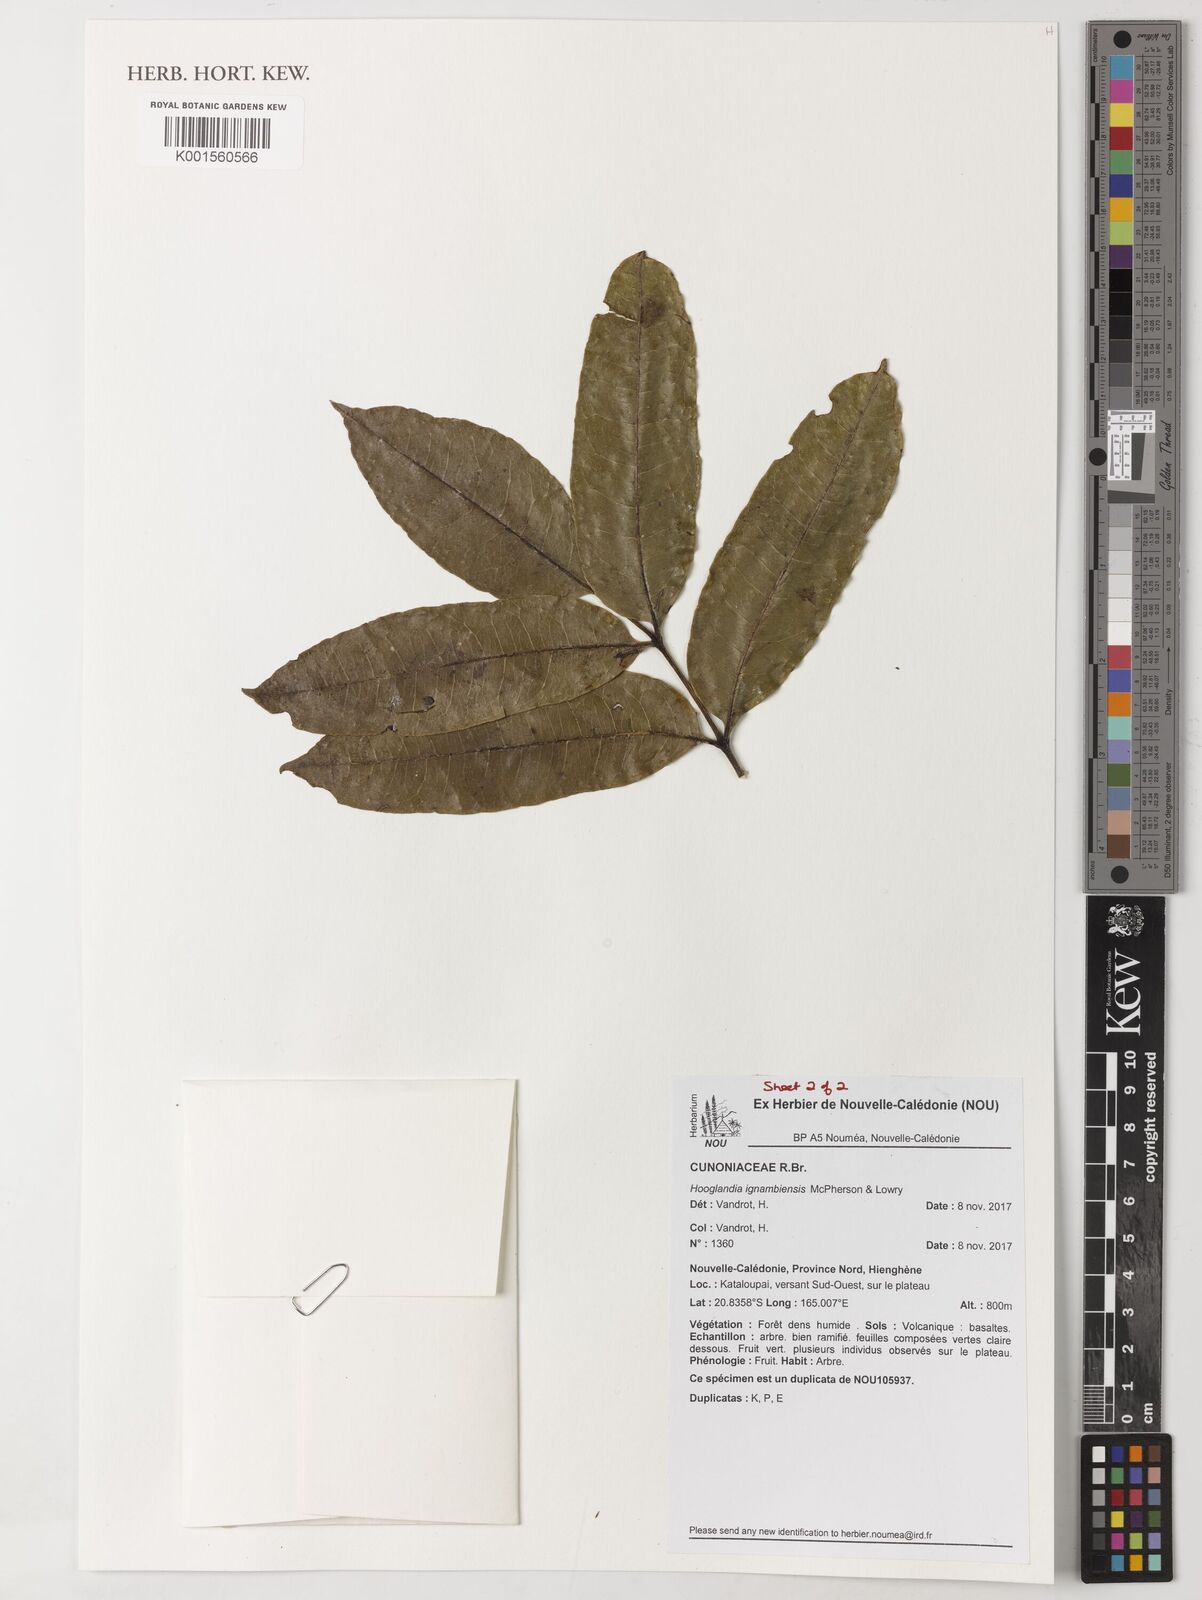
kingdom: Plantae
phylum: Tracheophyta
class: Magnoliopsida
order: Oxalidales
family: Cunoniaceae
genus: Hooglandia
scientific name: Hooglandia ignambiensis
